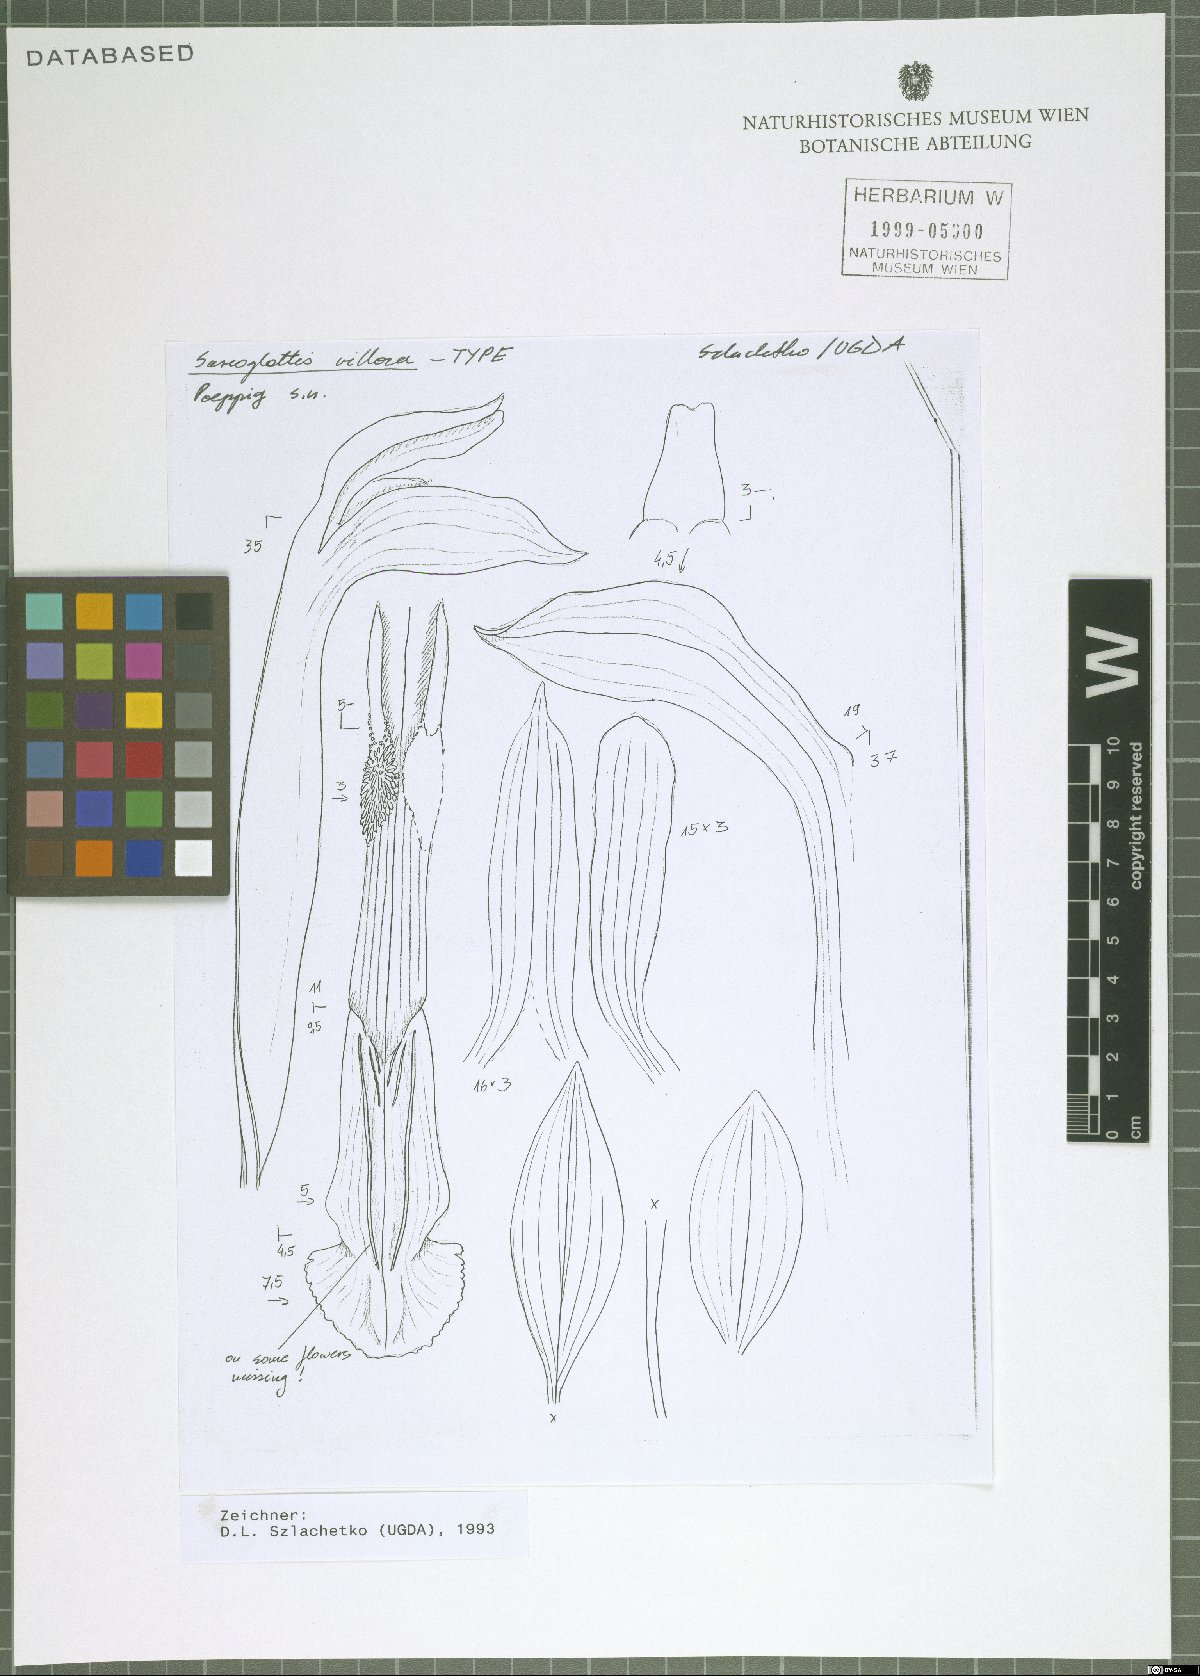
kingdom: Plantae
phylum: Tracheophyta
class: Liliopsida
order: Asparagales
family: Orchidaceae
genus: Sarcoglottis
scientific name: Sarcoglottis villosa
